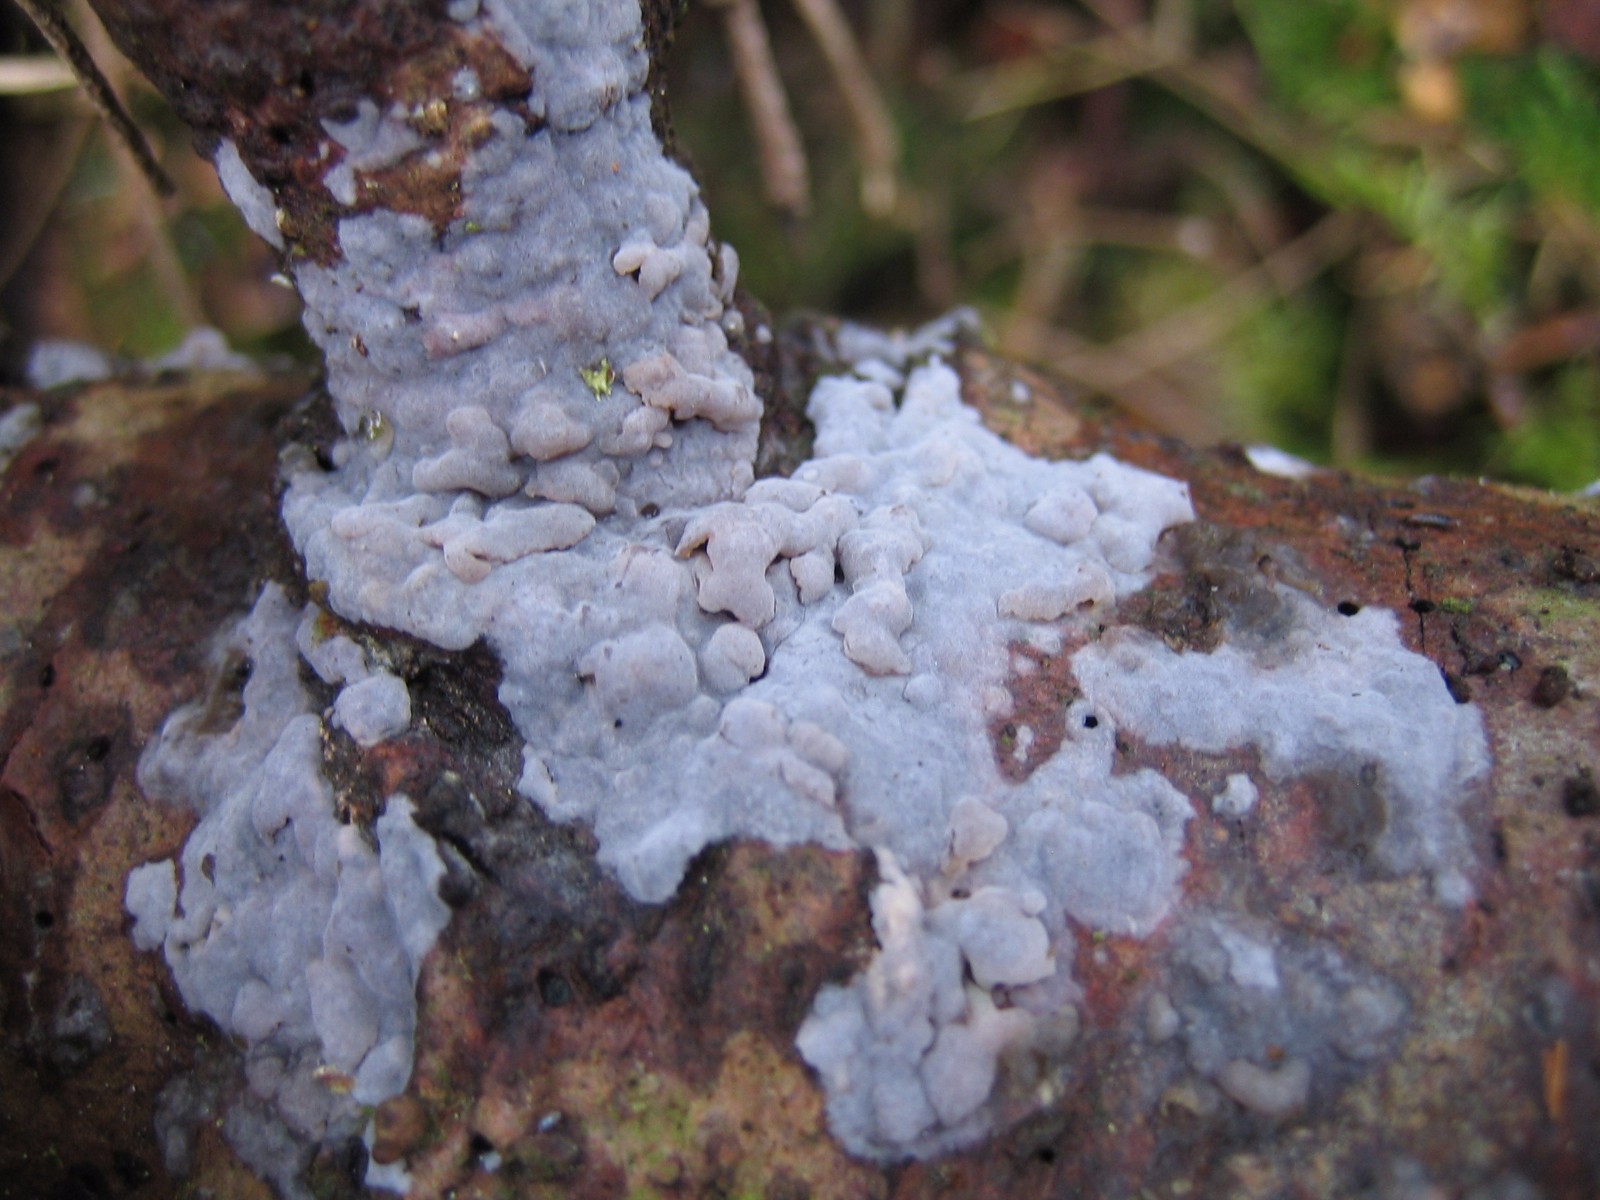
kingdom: Fungi
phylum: Basidiomycota
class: Agaricomycetes
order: Sebacinales
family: Sebacinaceae
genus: Sebacina
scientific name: Sebacina grisea
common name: blågrå bævrehinde
